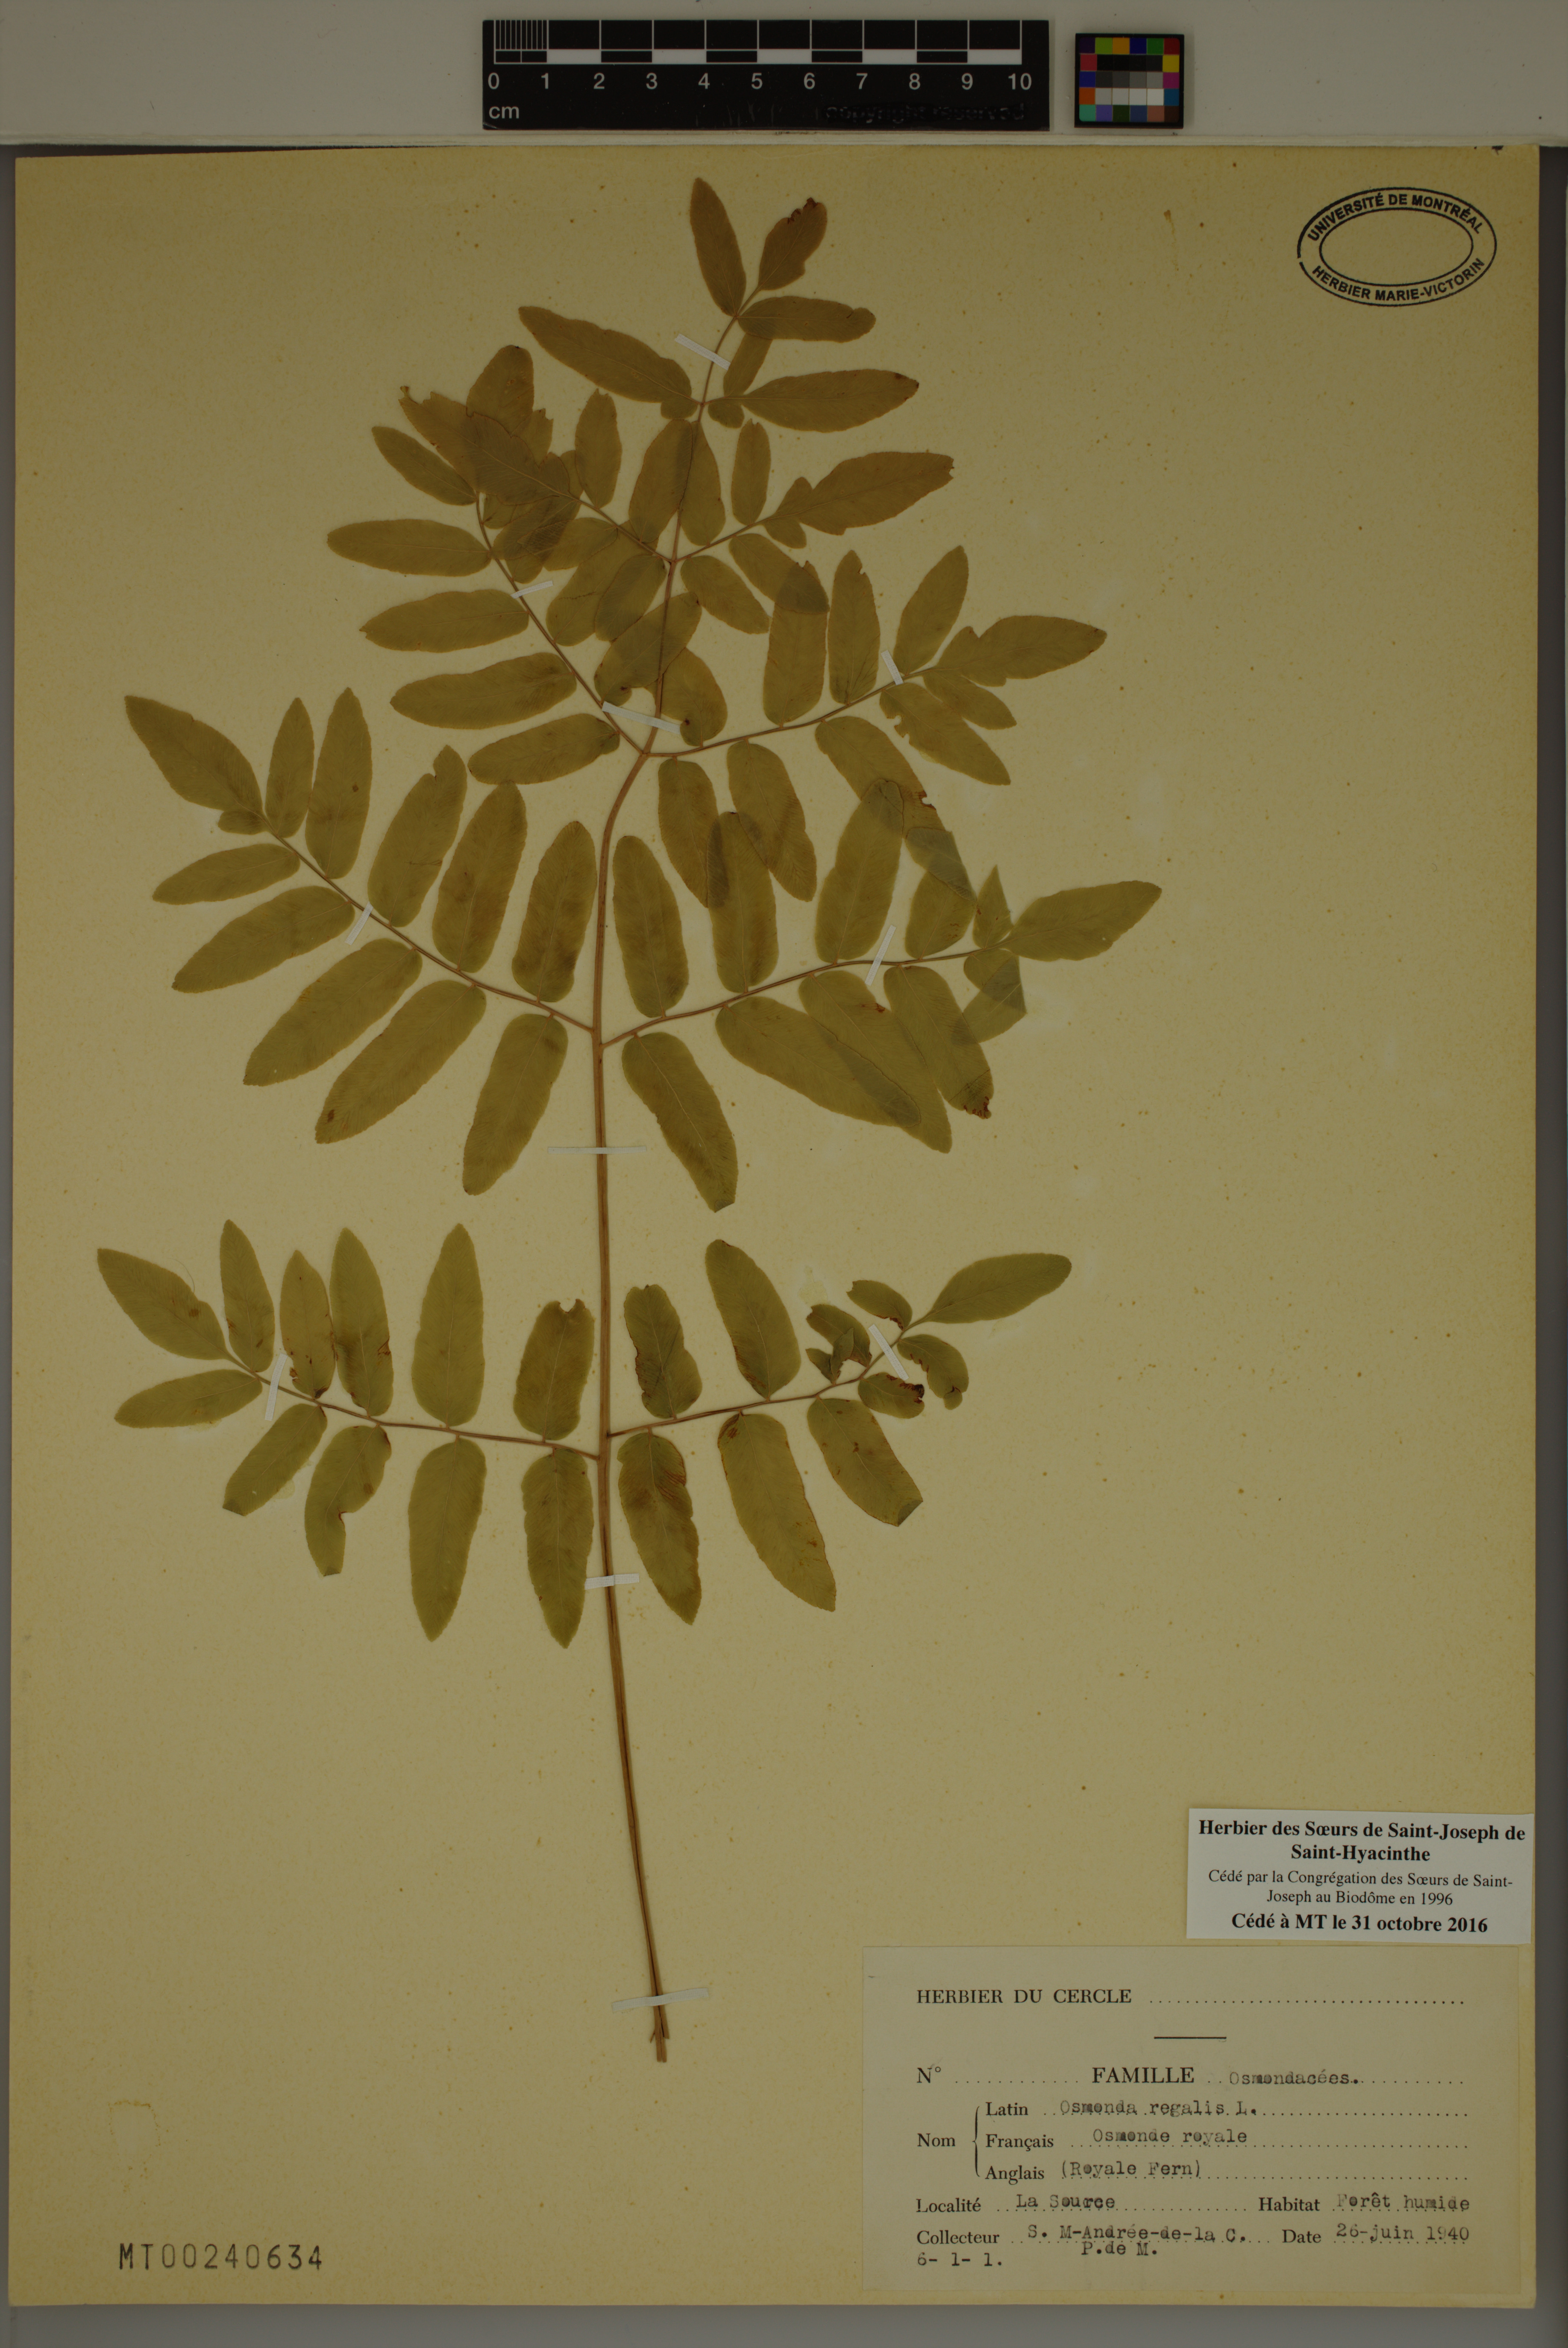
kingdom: Plantae
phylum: Tracheophyta
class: Polypodiopsida
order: Osmundales
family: Osmundaceae
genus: Osmunda
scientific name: Osmunda regalis
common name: Royal fern
